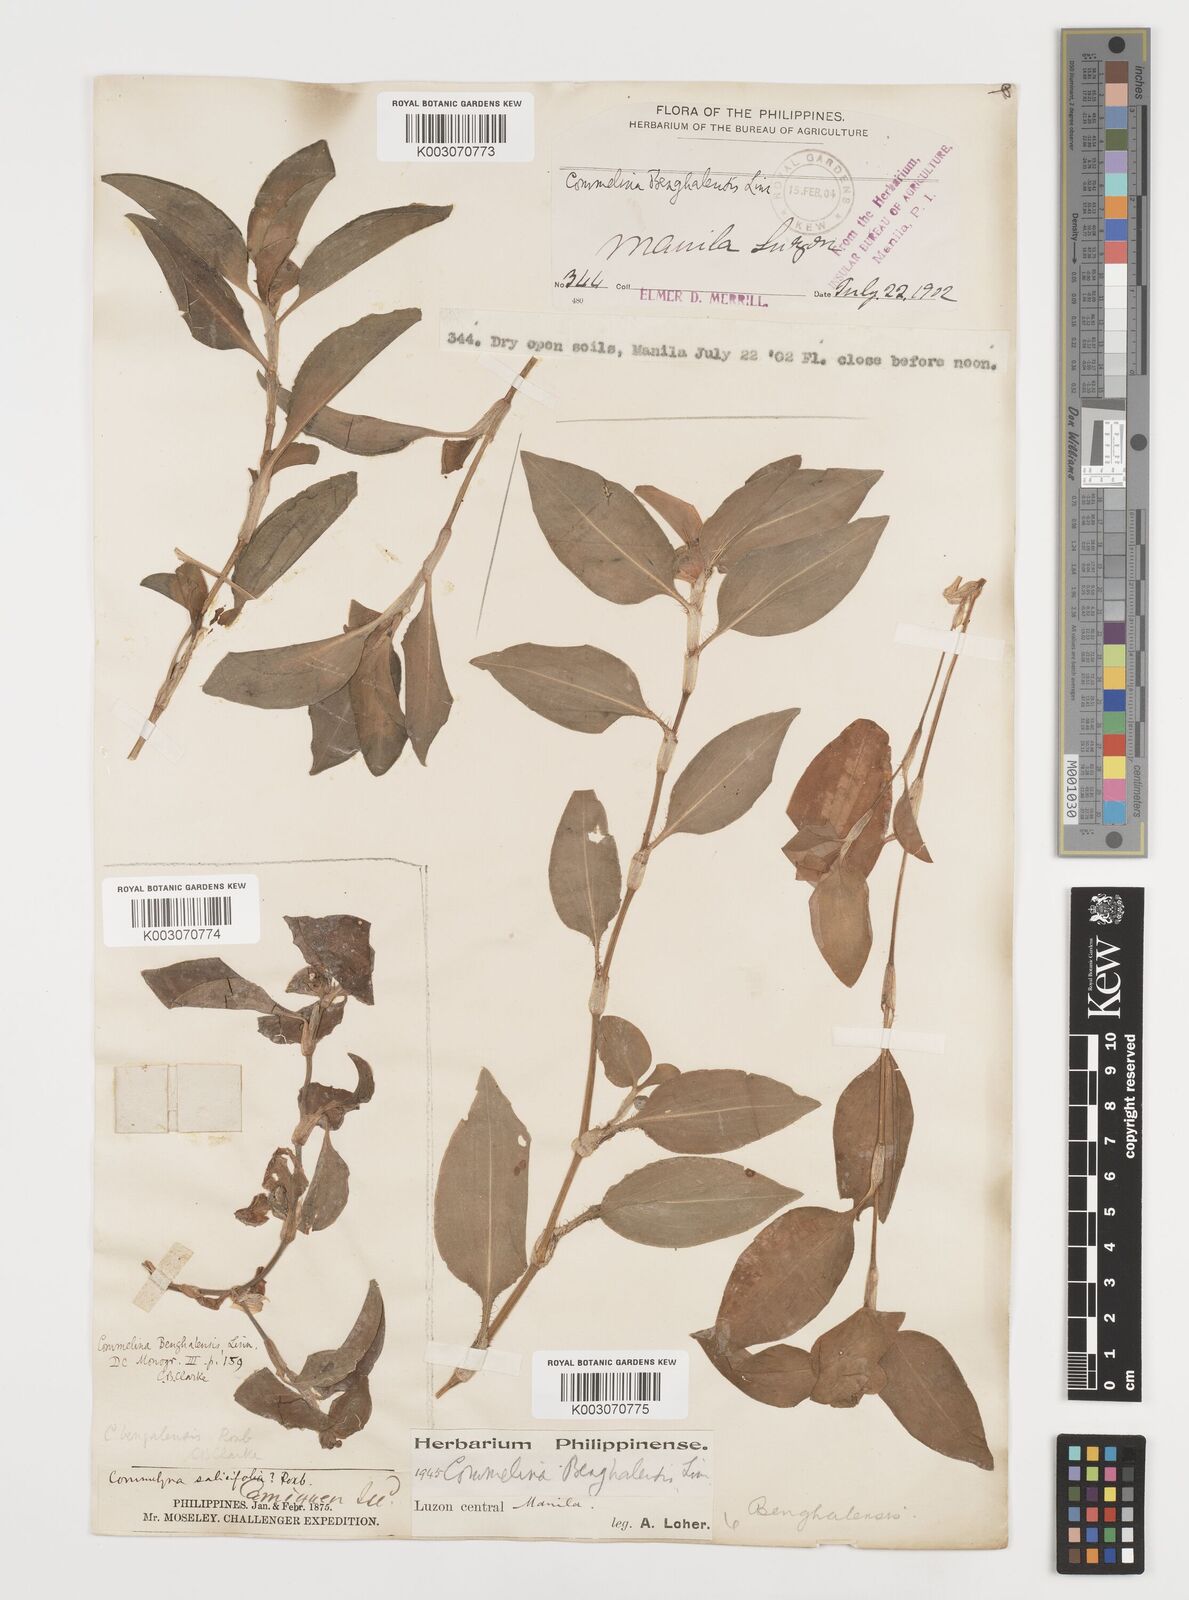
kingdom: Plantae
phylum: Tracheophyta
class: Liliopsida
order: Commelinales
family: Commelinaceae
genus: Commelina
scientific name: Commelina benghalensis
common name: Jio
